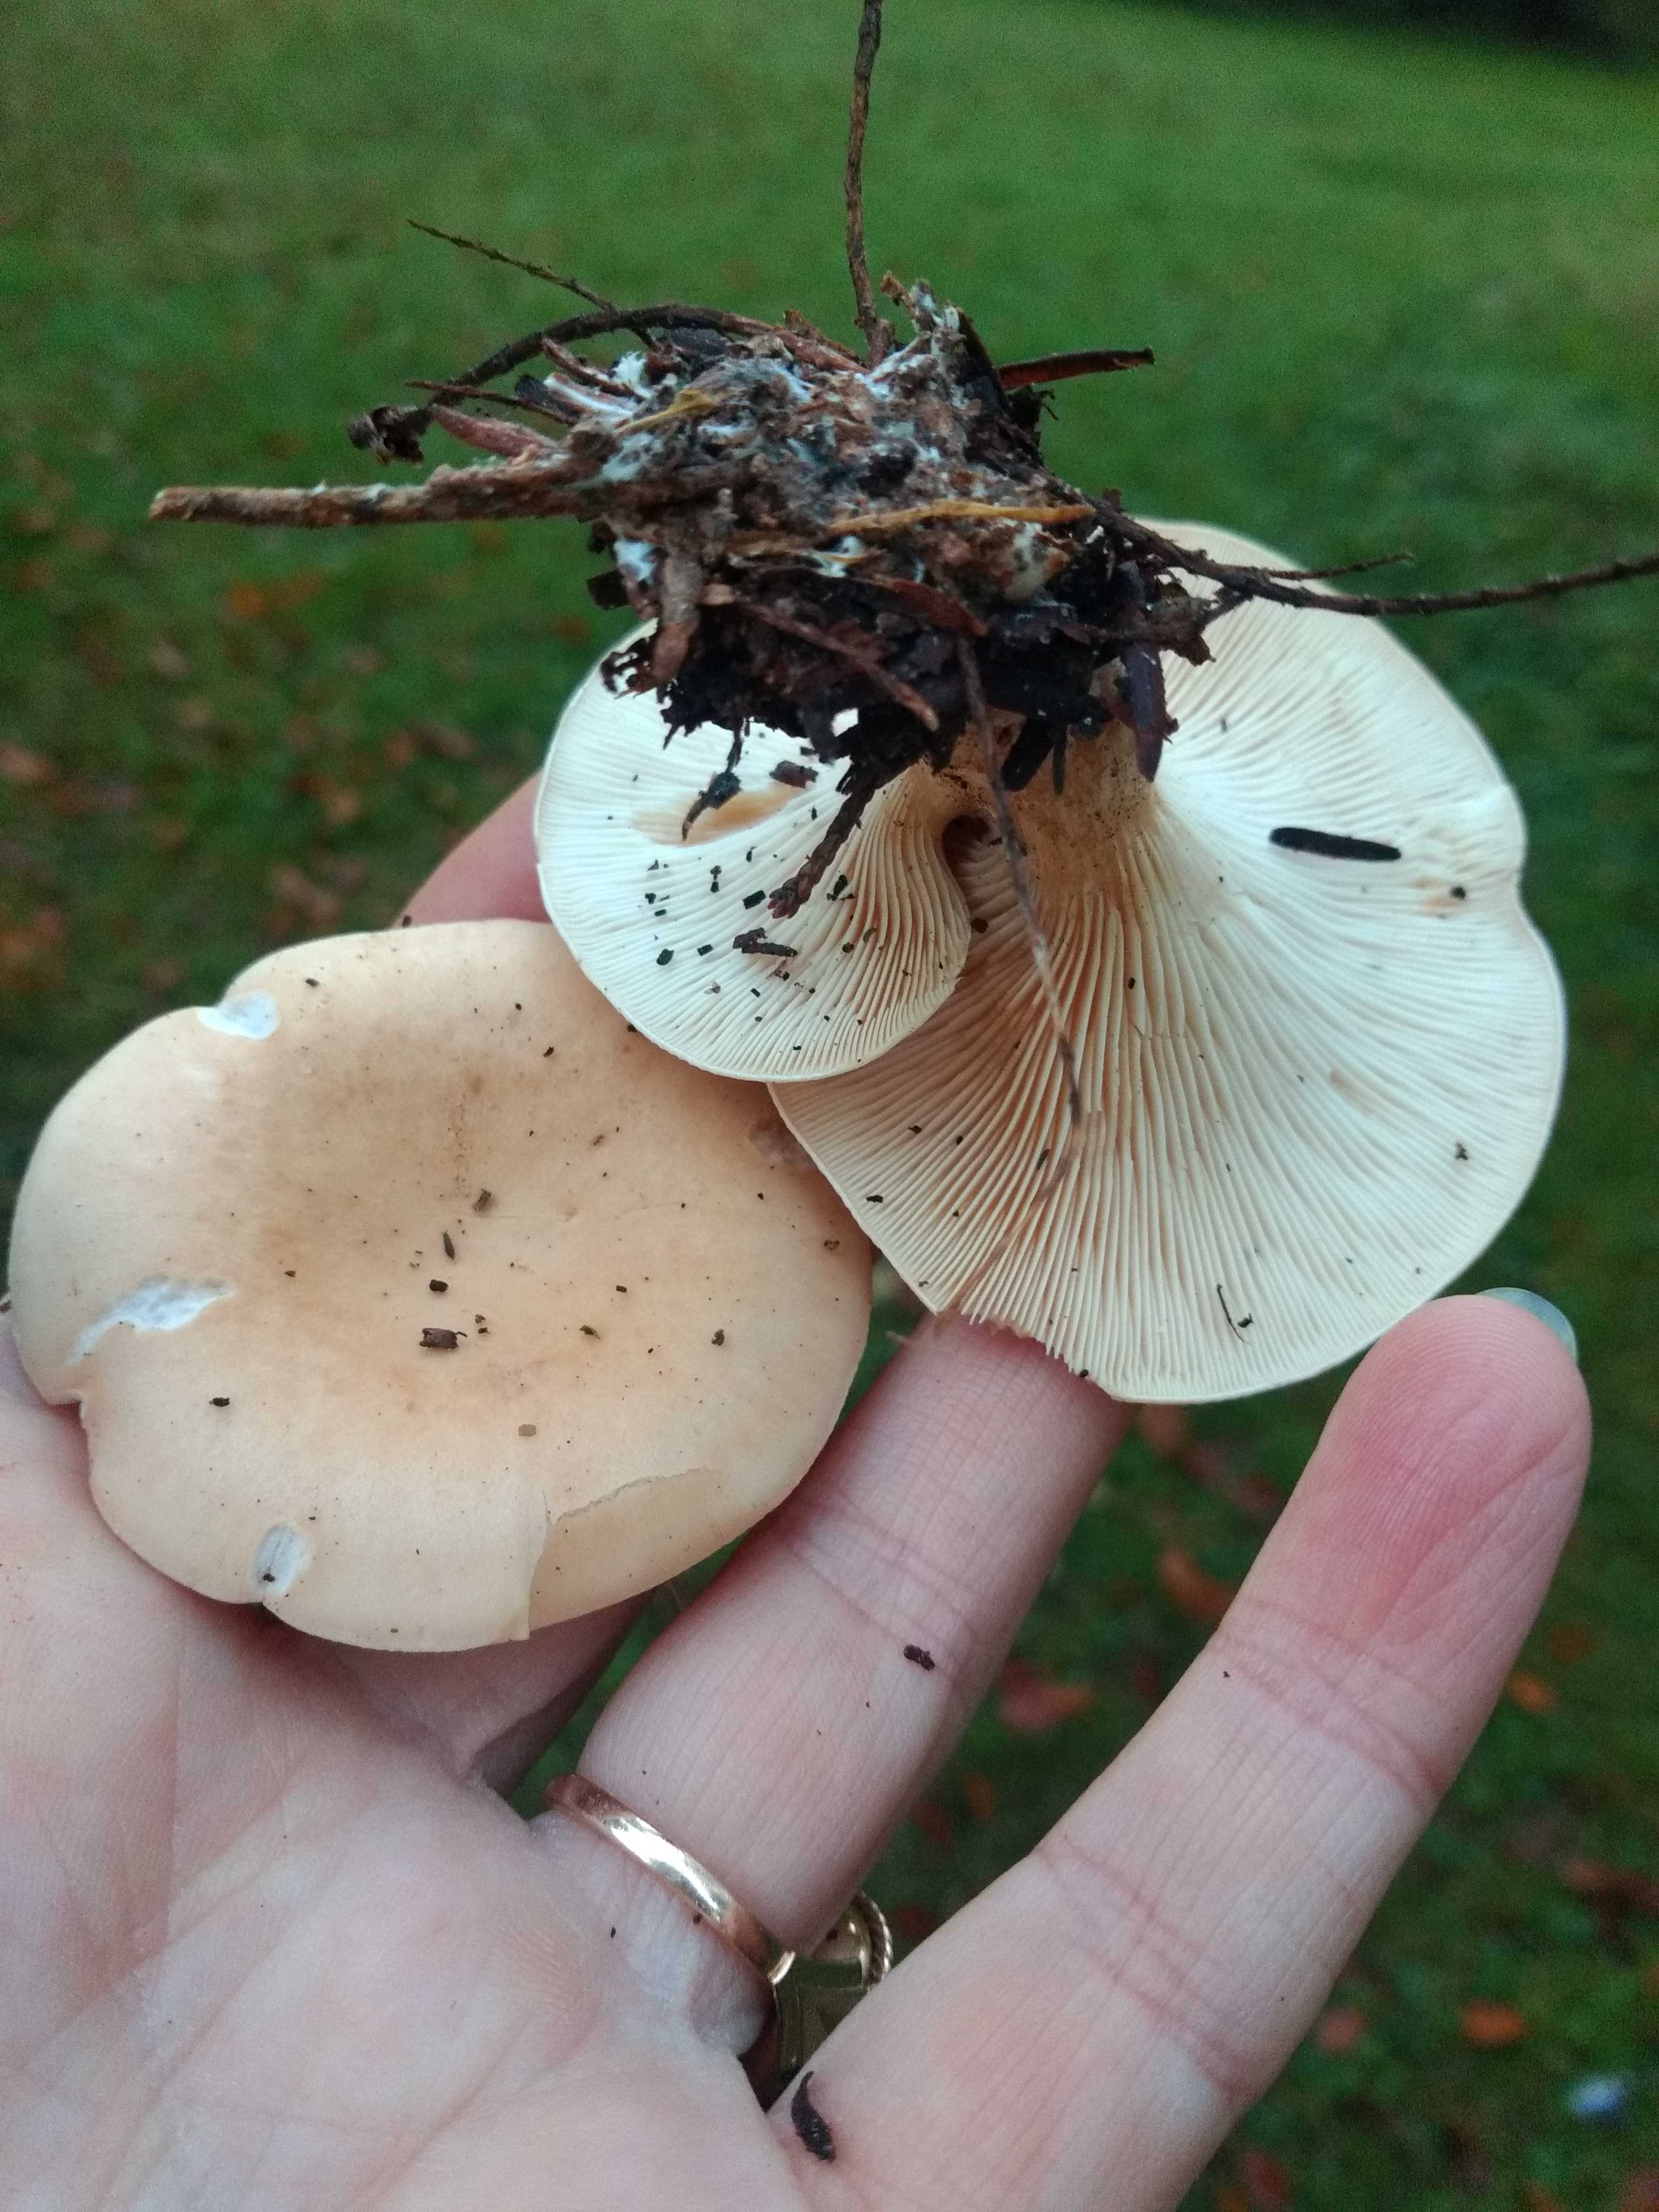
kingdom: Fungi
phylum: Basidiomycota
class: Agaricomycetes
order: Agaricales
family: Tricholomataceae
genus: Paralepista
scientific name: Paralepista flaccida
